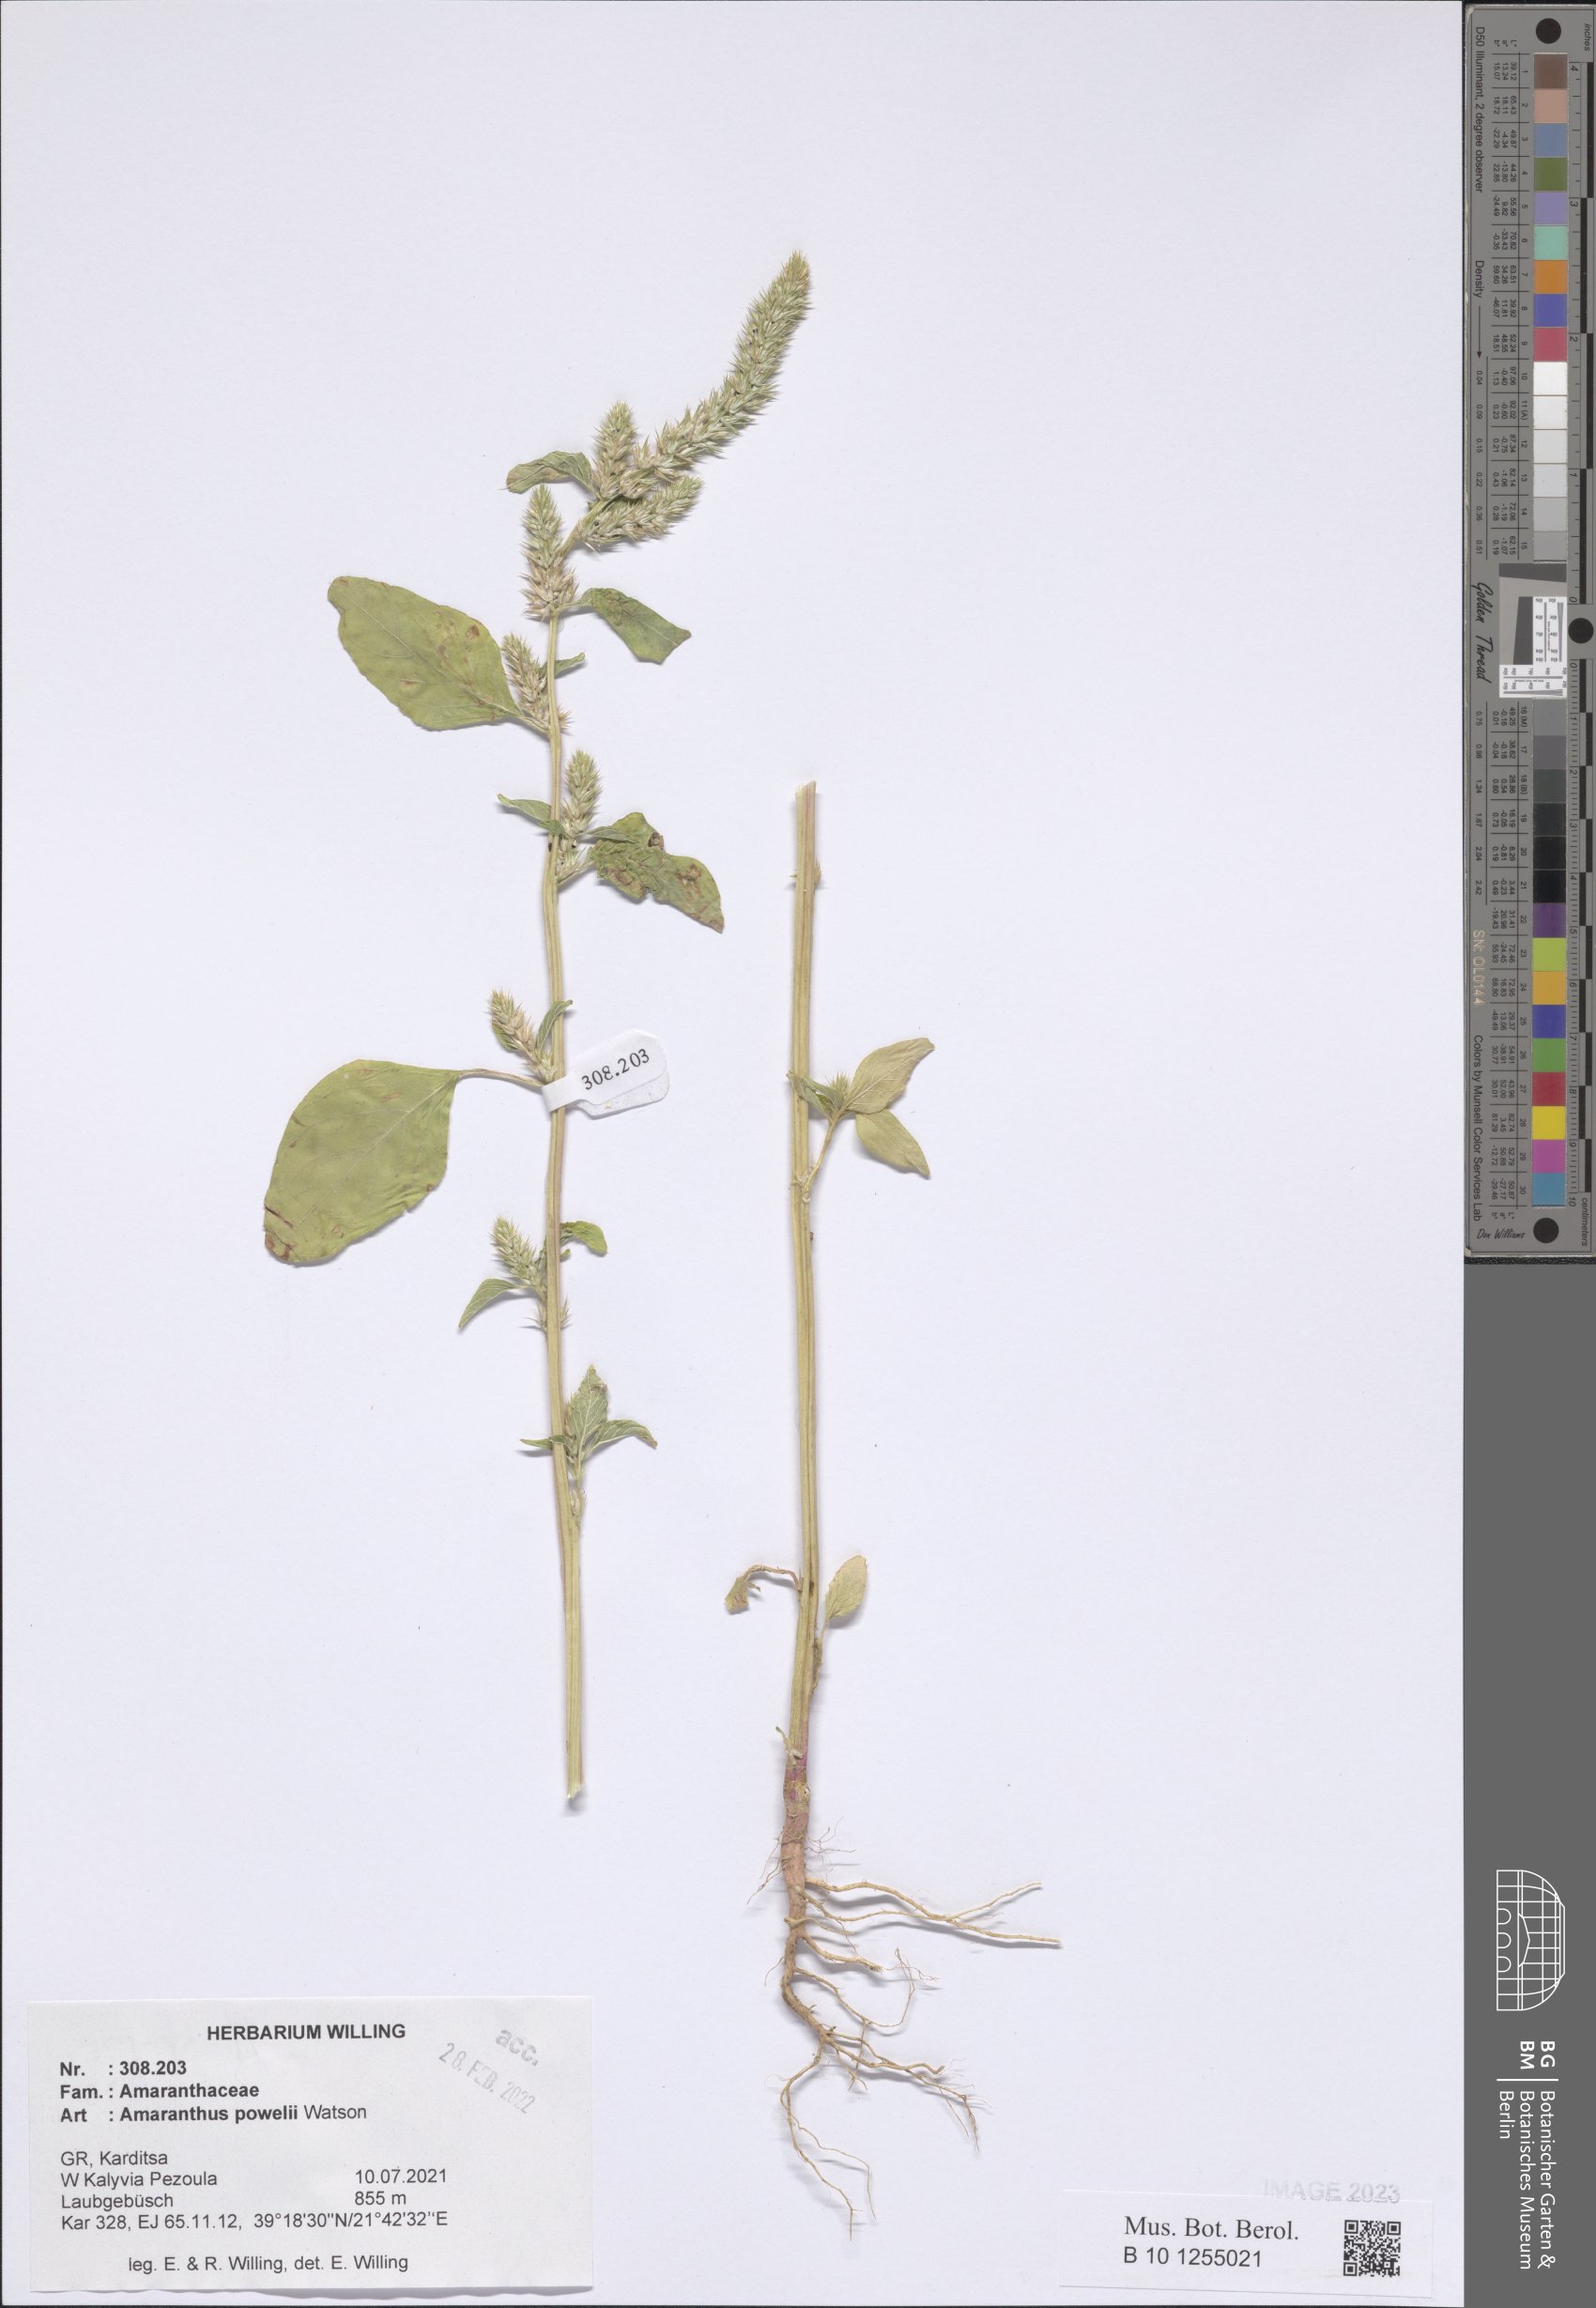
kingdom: Plantae
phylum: Tracheophyta
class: Magnoliopsida
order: Caryophyllales
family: Amaranthaceae
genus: Amaranthus
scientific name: Amaranthus powellii
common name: Powell's amaranth
